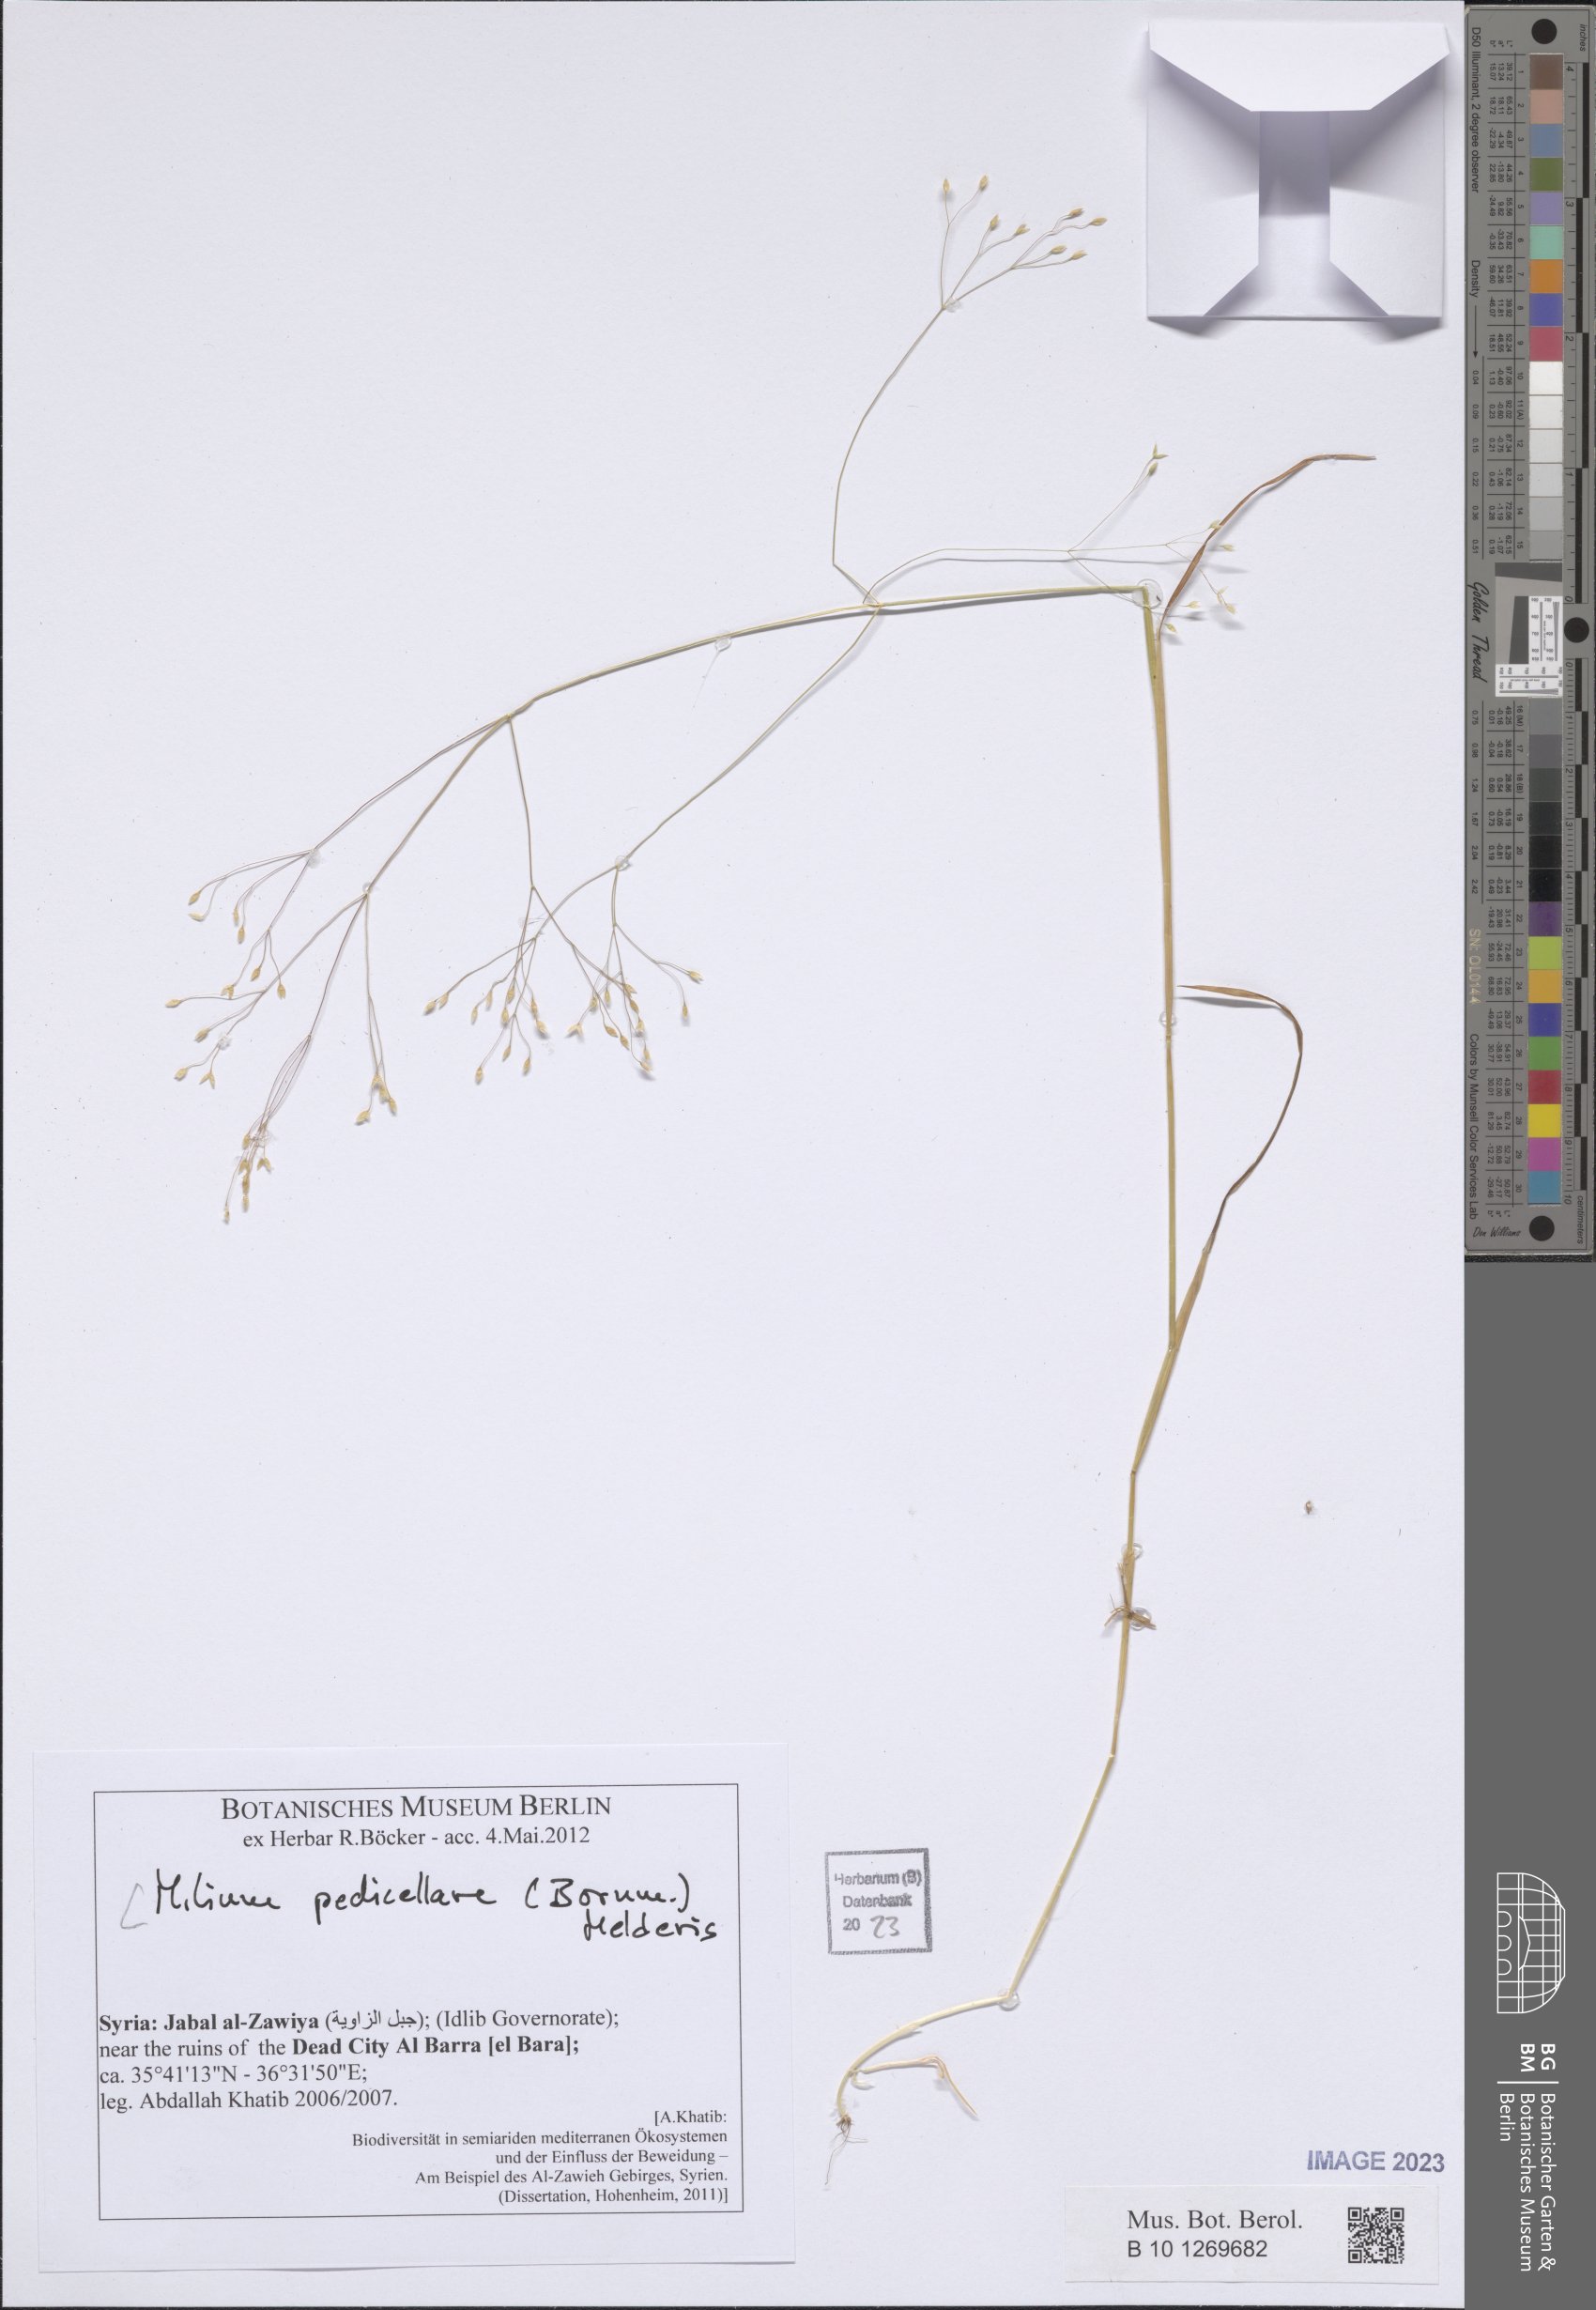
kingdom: Plantae
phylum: Tracheophyta
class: Liliopsida
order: Poales
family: Poaceae
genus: Milium
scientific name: Milium pedicellare
